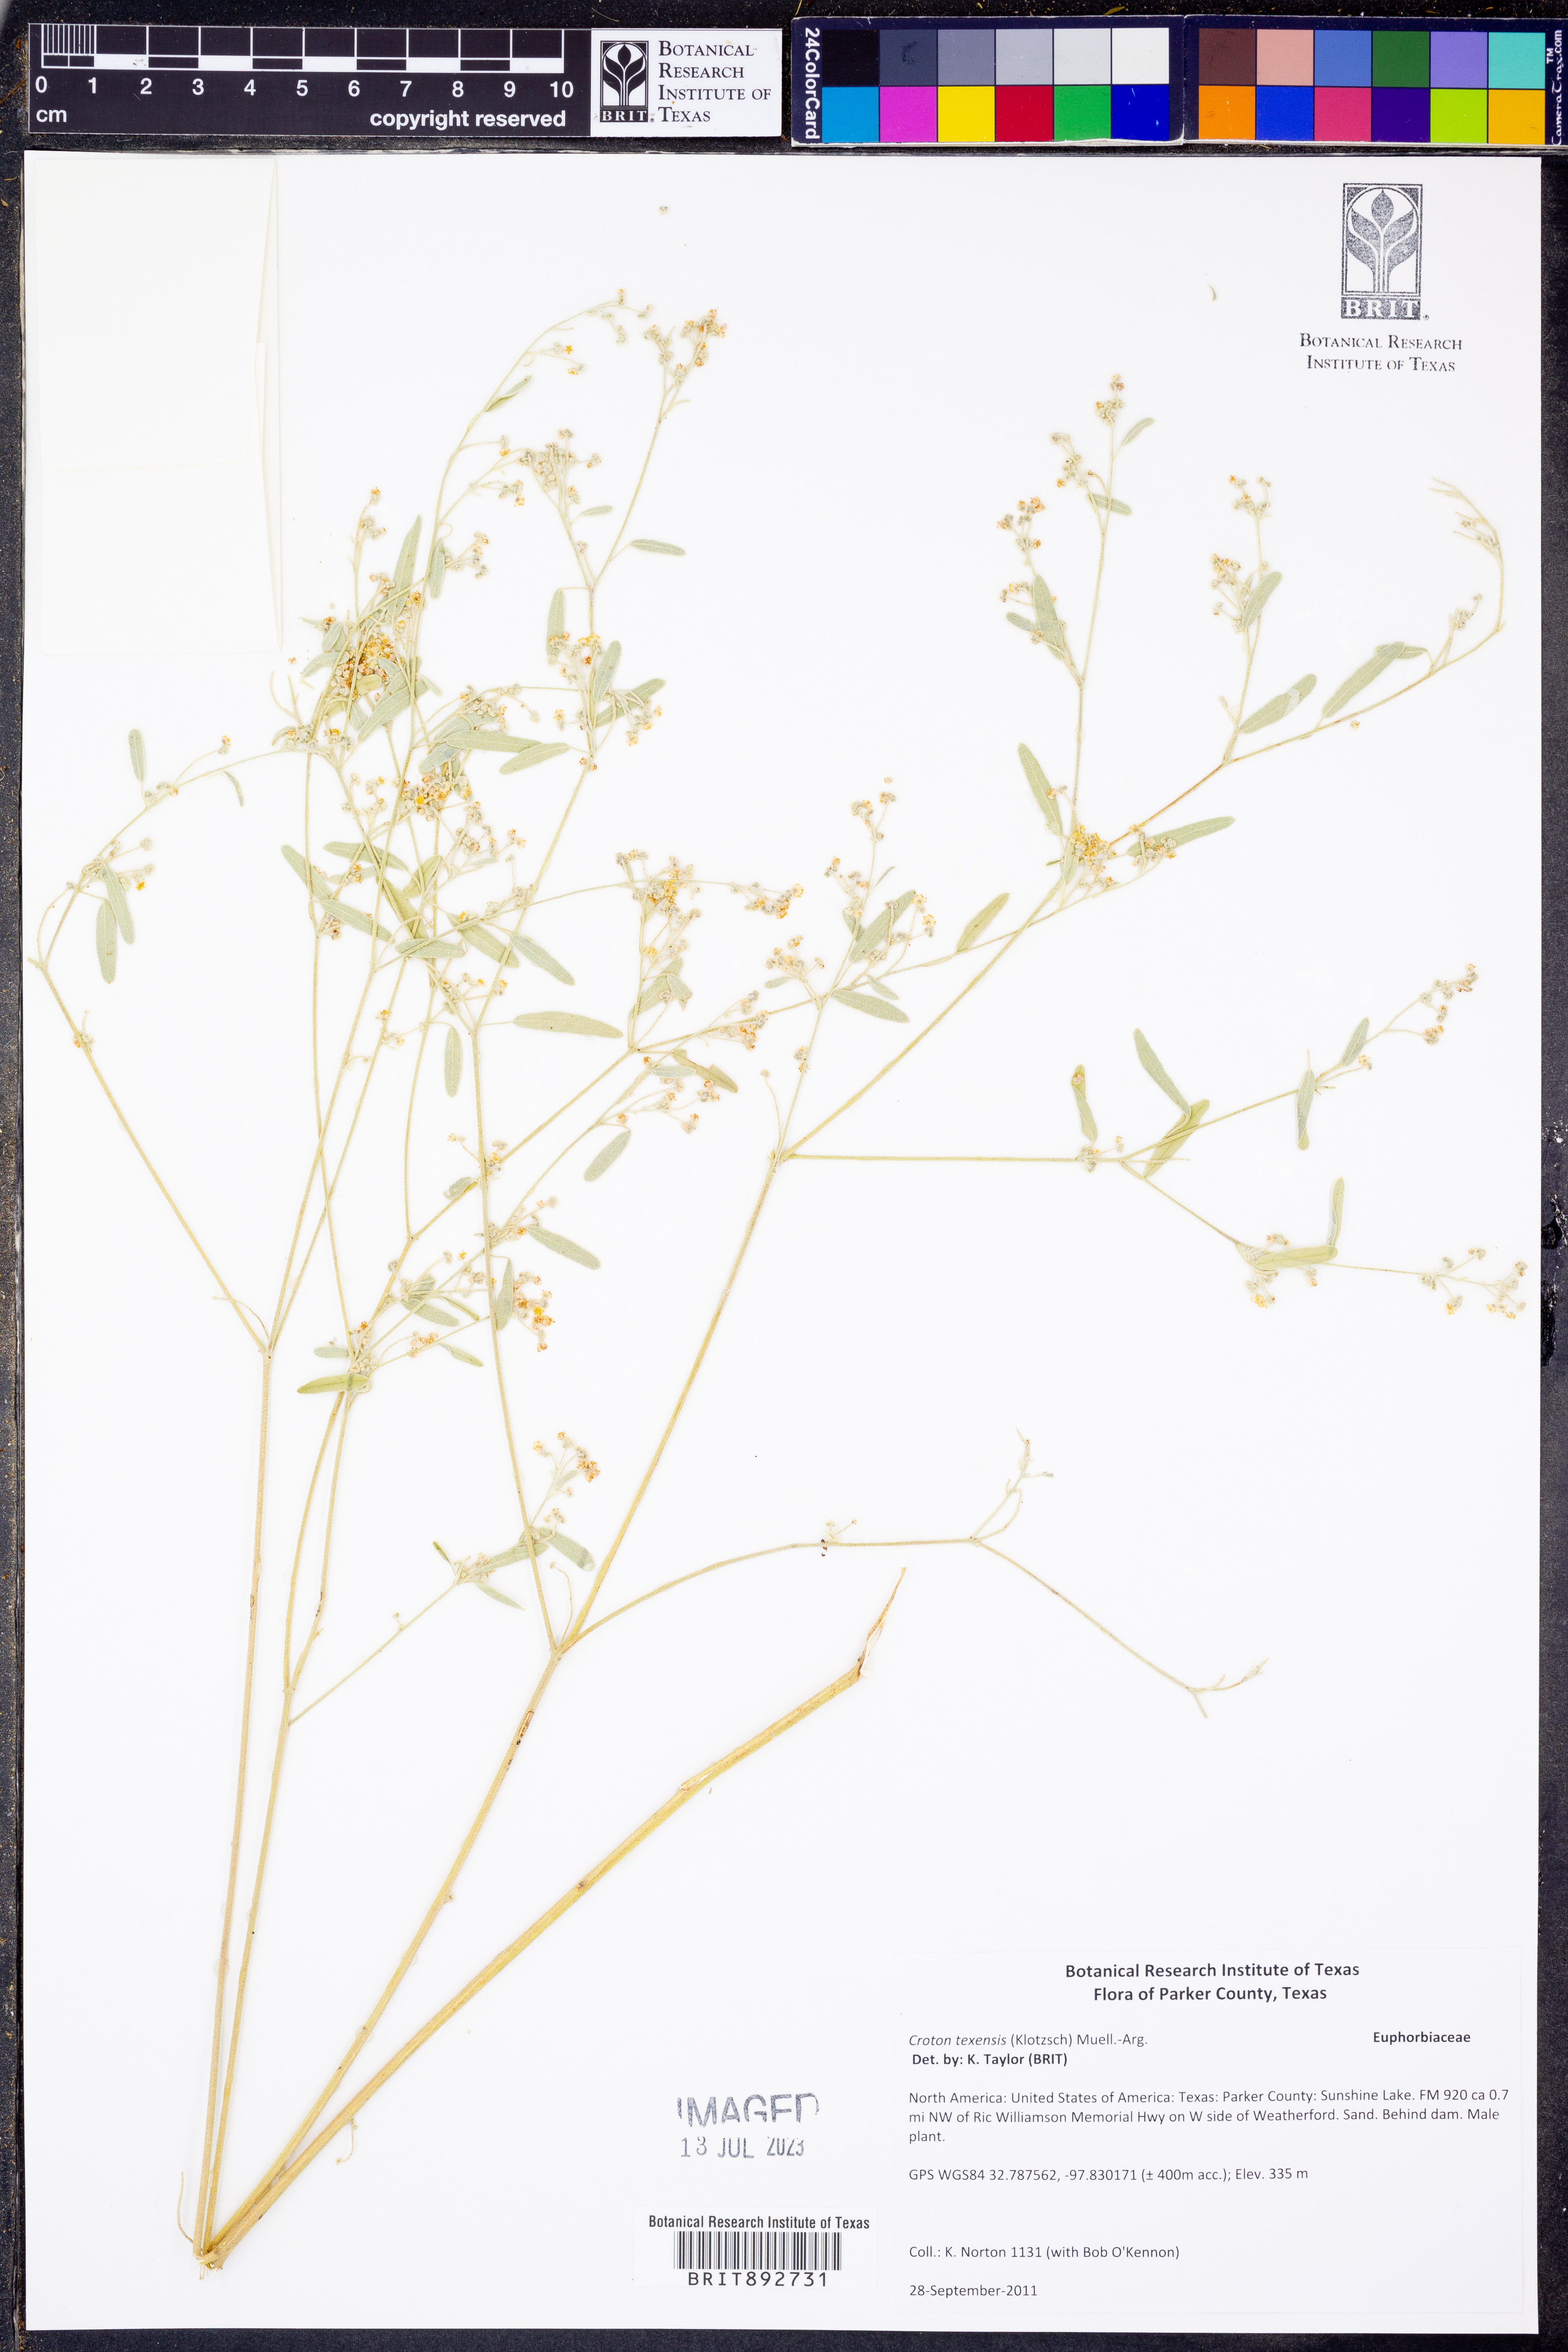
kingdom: Plantae
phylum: Tracheophyta
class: Magnoliopsida
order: Malpighiales
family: Euphorbiaceae
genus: Croton
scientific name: Croton texensis
